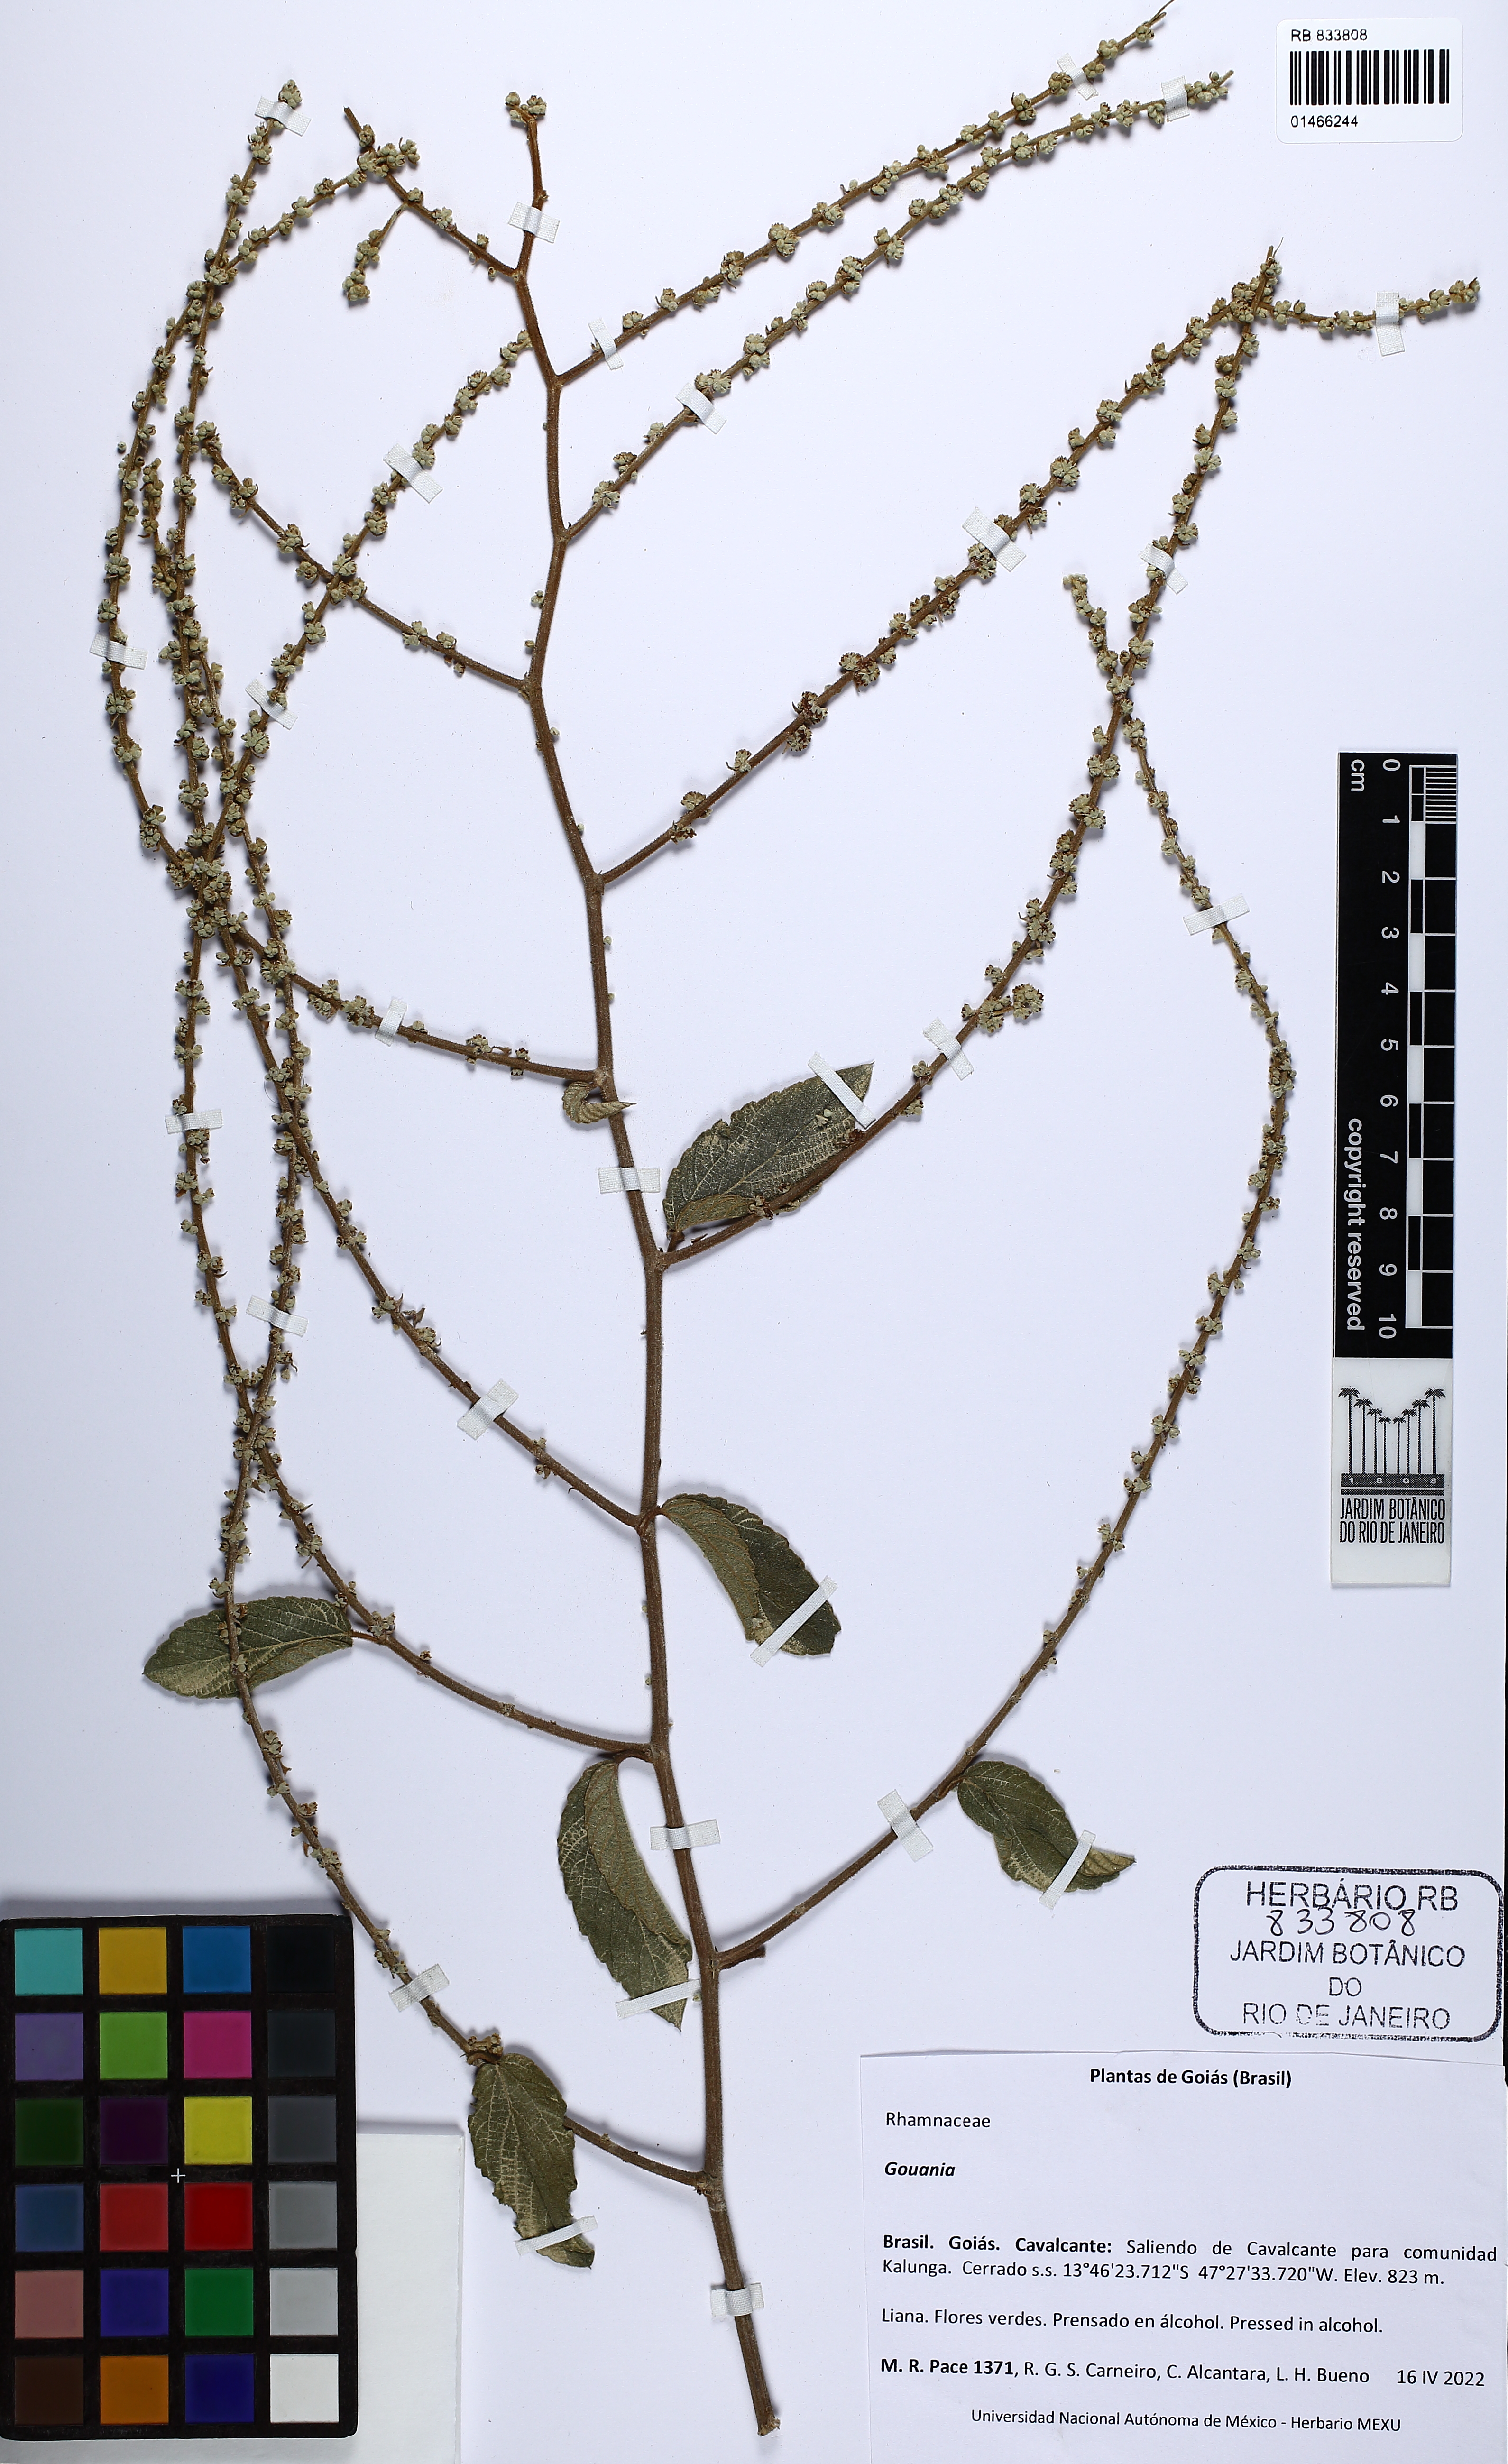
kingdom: Plantae
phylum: Tracheophyta
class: Magnoliopsida
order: Rosales
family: Rhamnaceae
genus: Gouania
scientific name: Gouania
